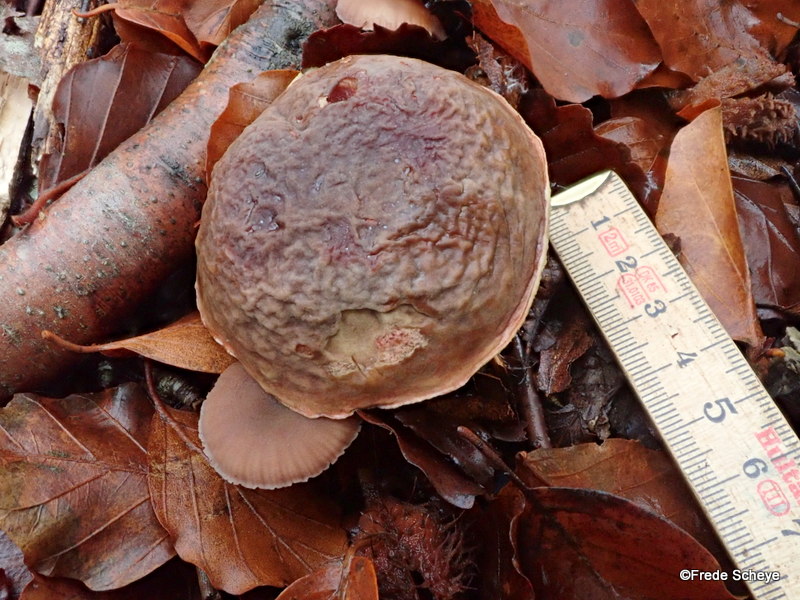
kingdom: Fungi
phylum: Basidiomycota
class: Agaricomycetes
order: Boletales
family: Boletaceae
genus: Xerocomellus
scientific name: Xerocomellus pruinatus
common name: dugget rørhat
